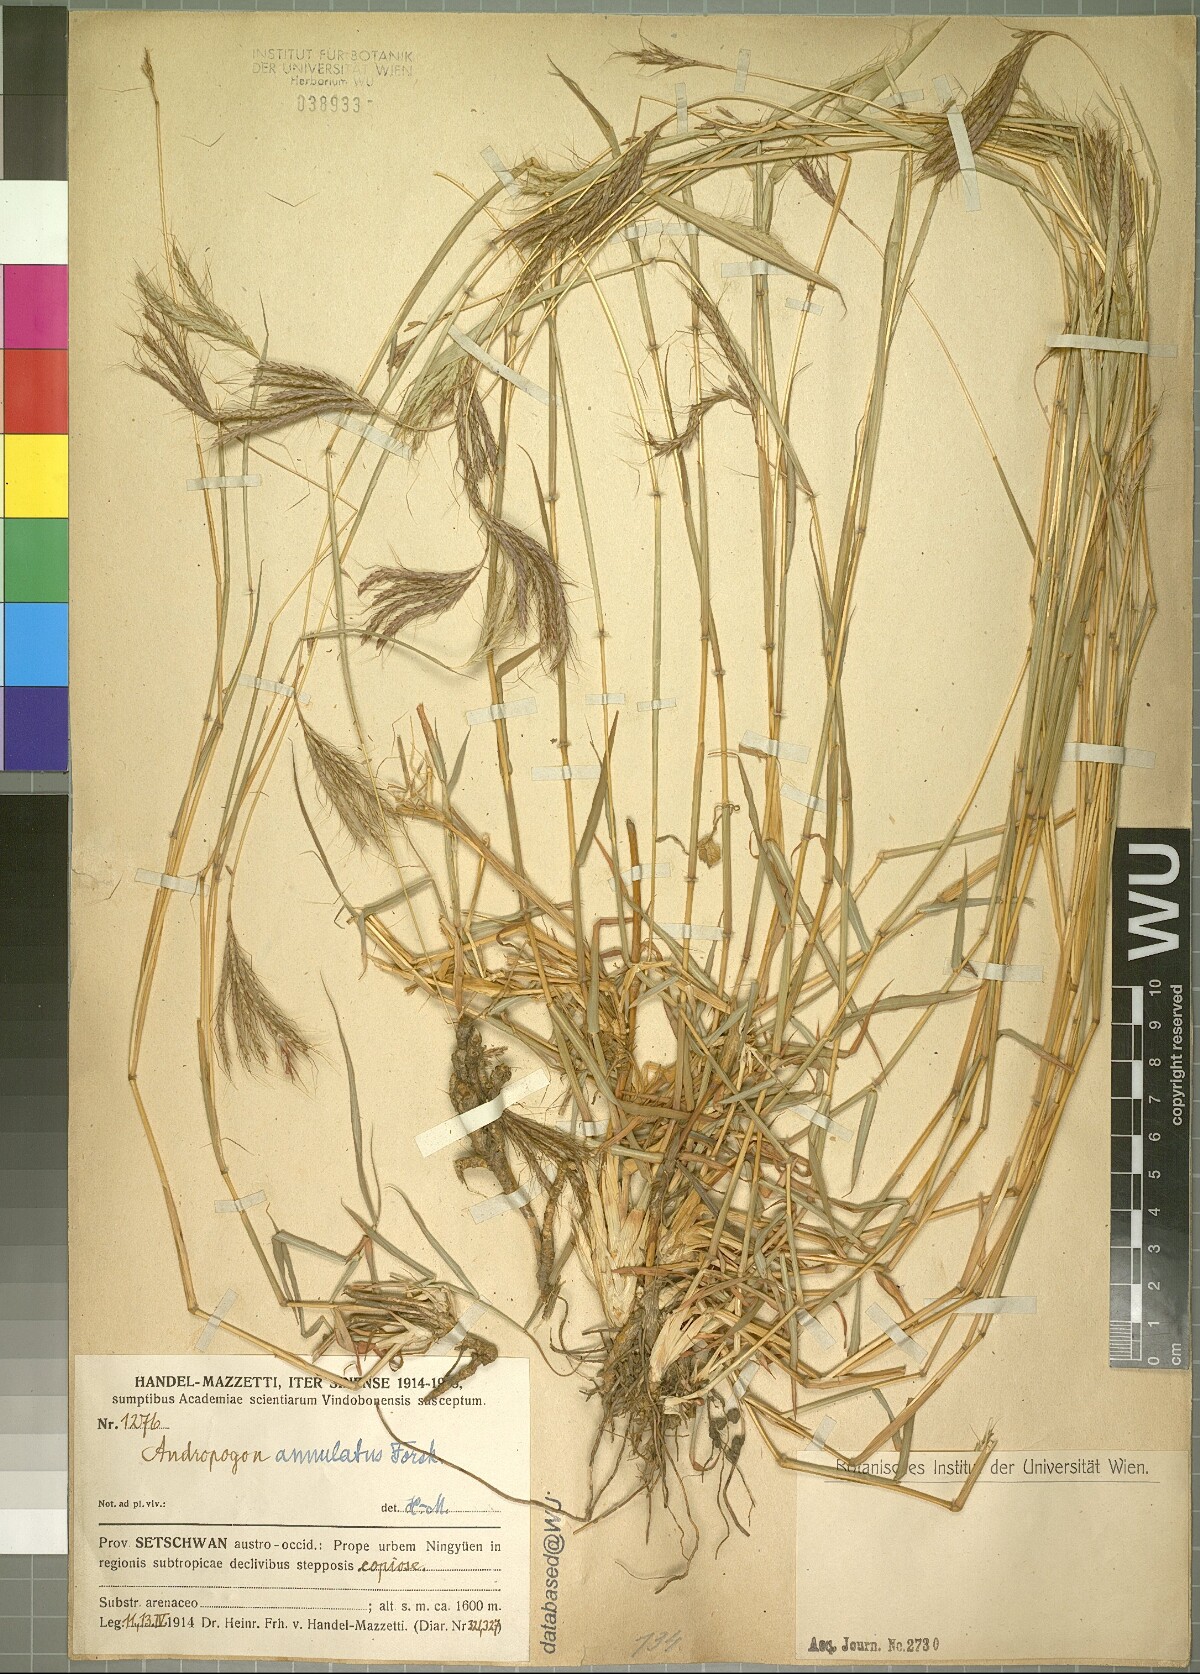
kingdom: Plantae
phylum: Tracheophyta
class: Liliopsida
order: Poales
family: Poaceae
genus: Dichanthium
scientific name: Dichanthium annulatum
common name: Kleberg's bluestem
